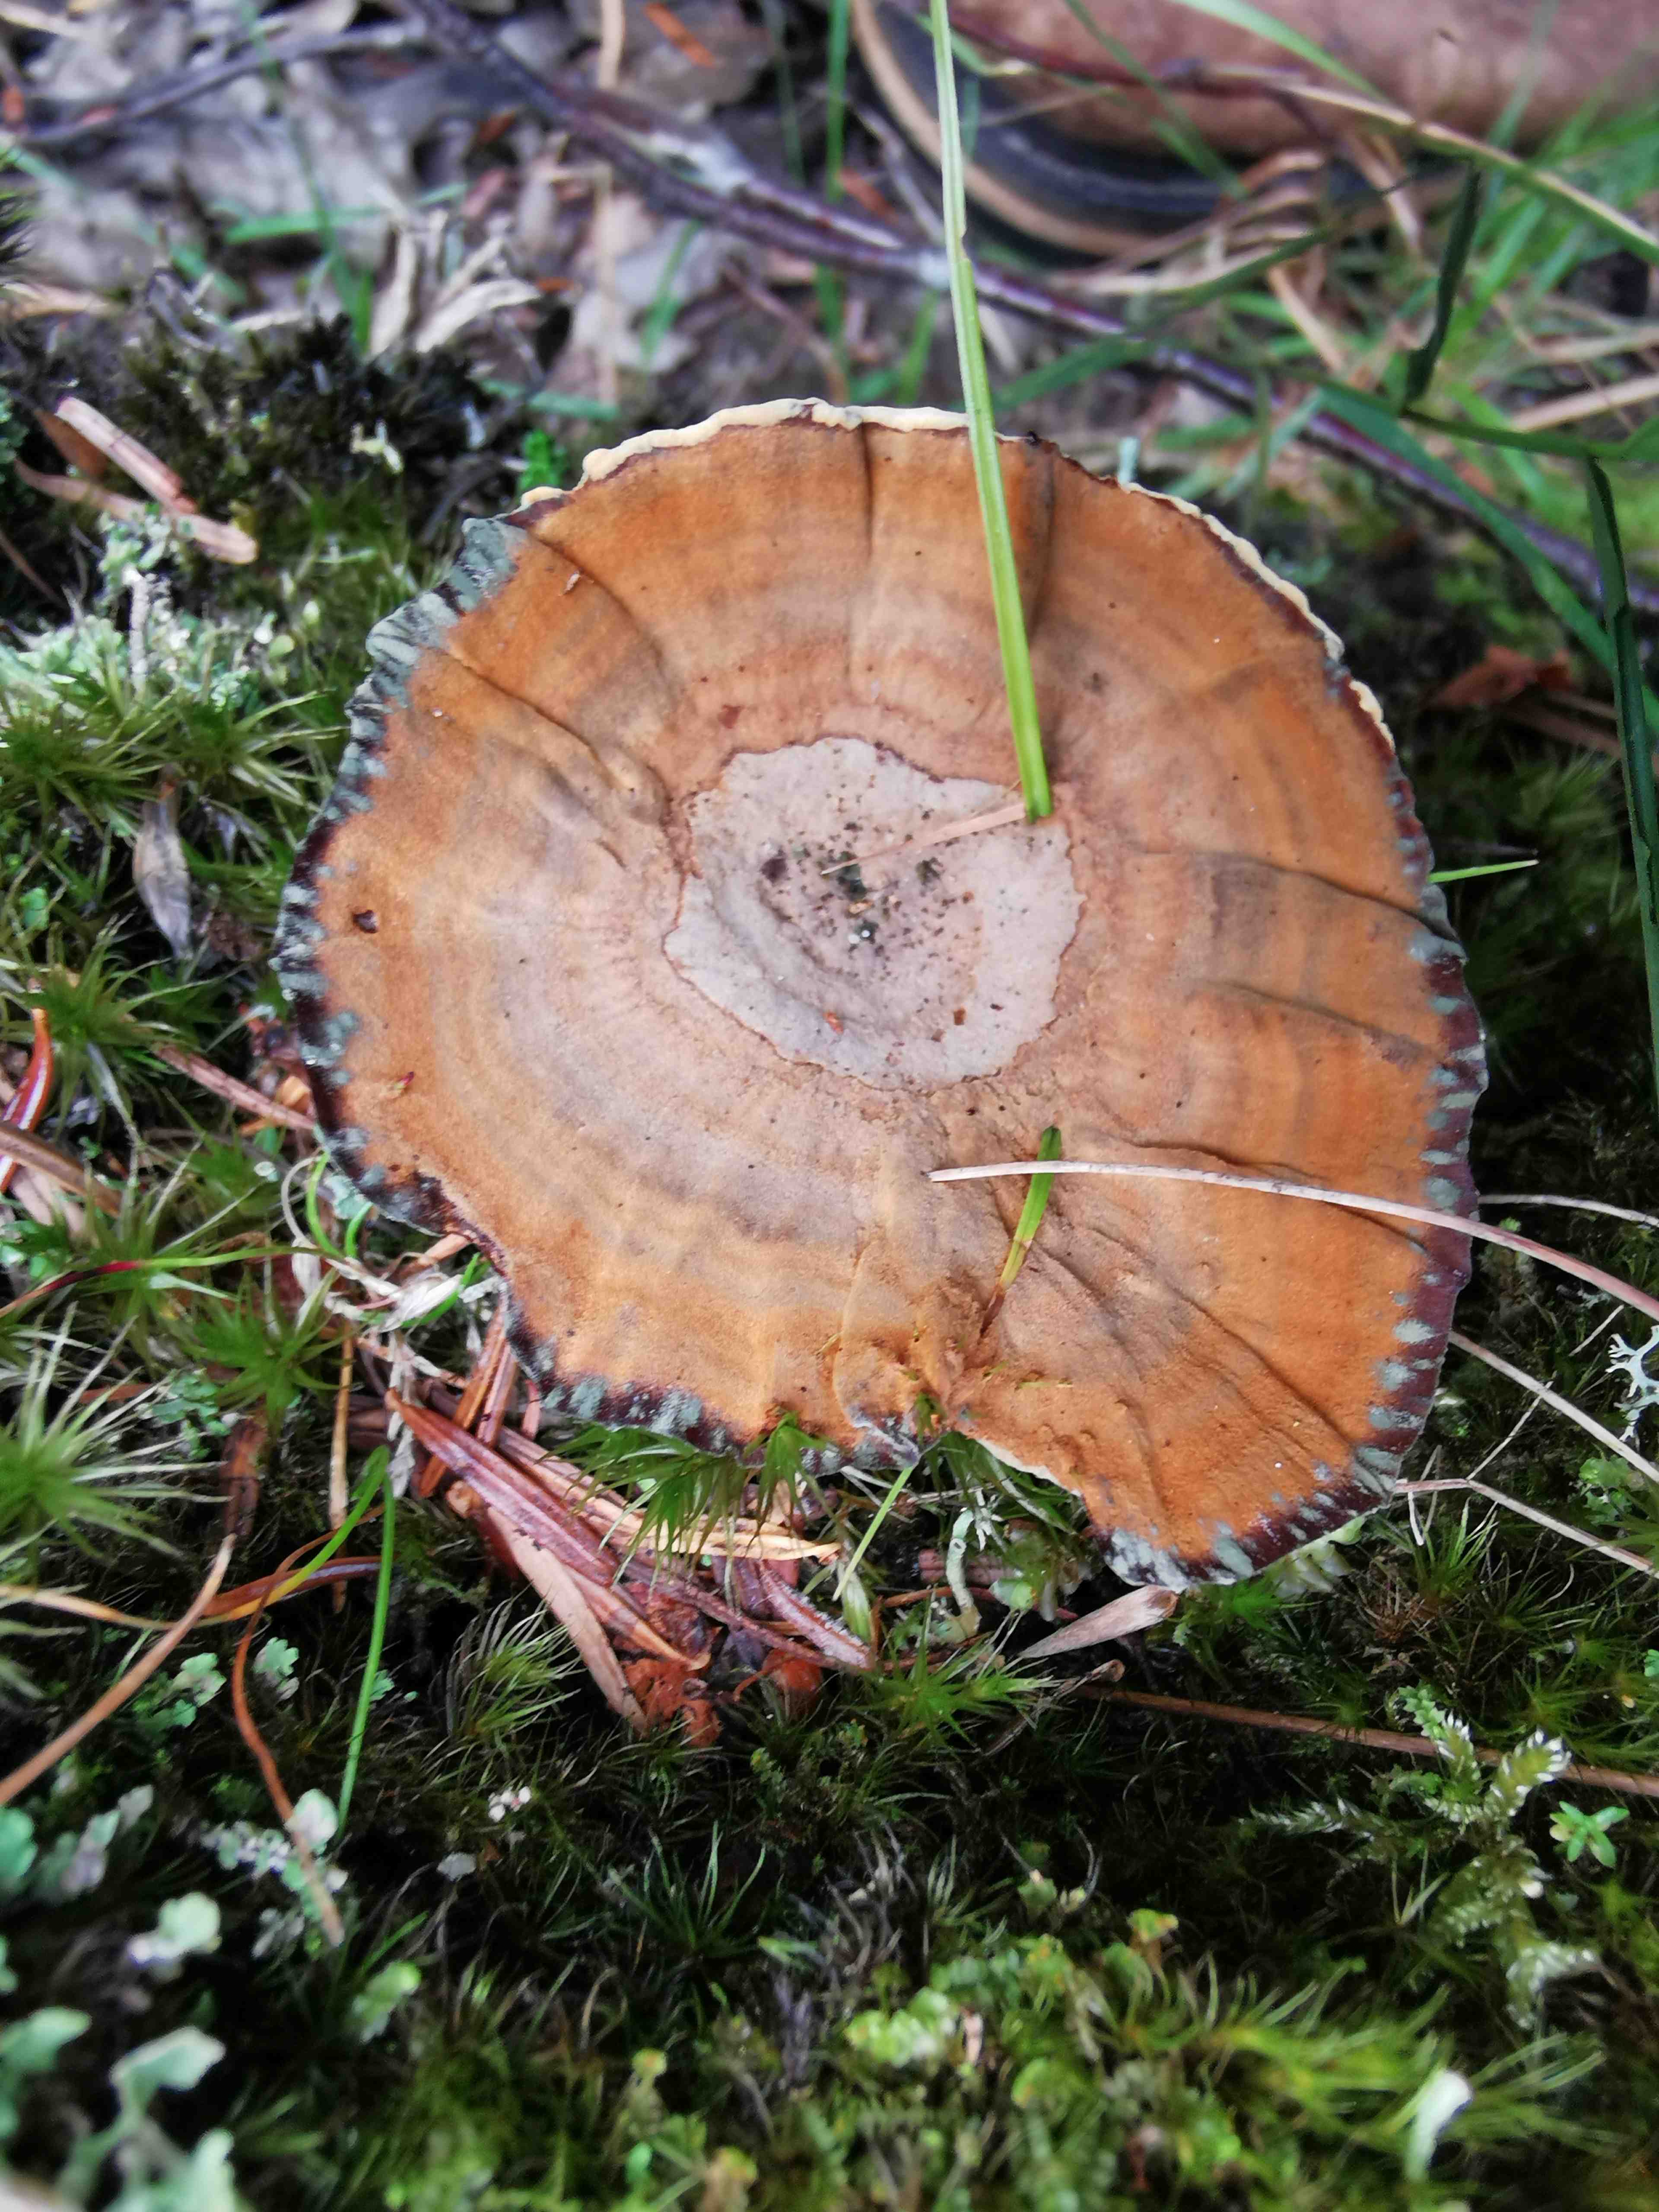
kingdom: Fungi
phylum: Basidiomycota
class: Agaricomycetes
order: Hymenochaetales
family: Hymenochaetaceae
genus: Coltricia
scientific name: Coltricia perennis
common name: almindelig sandporesvamp
